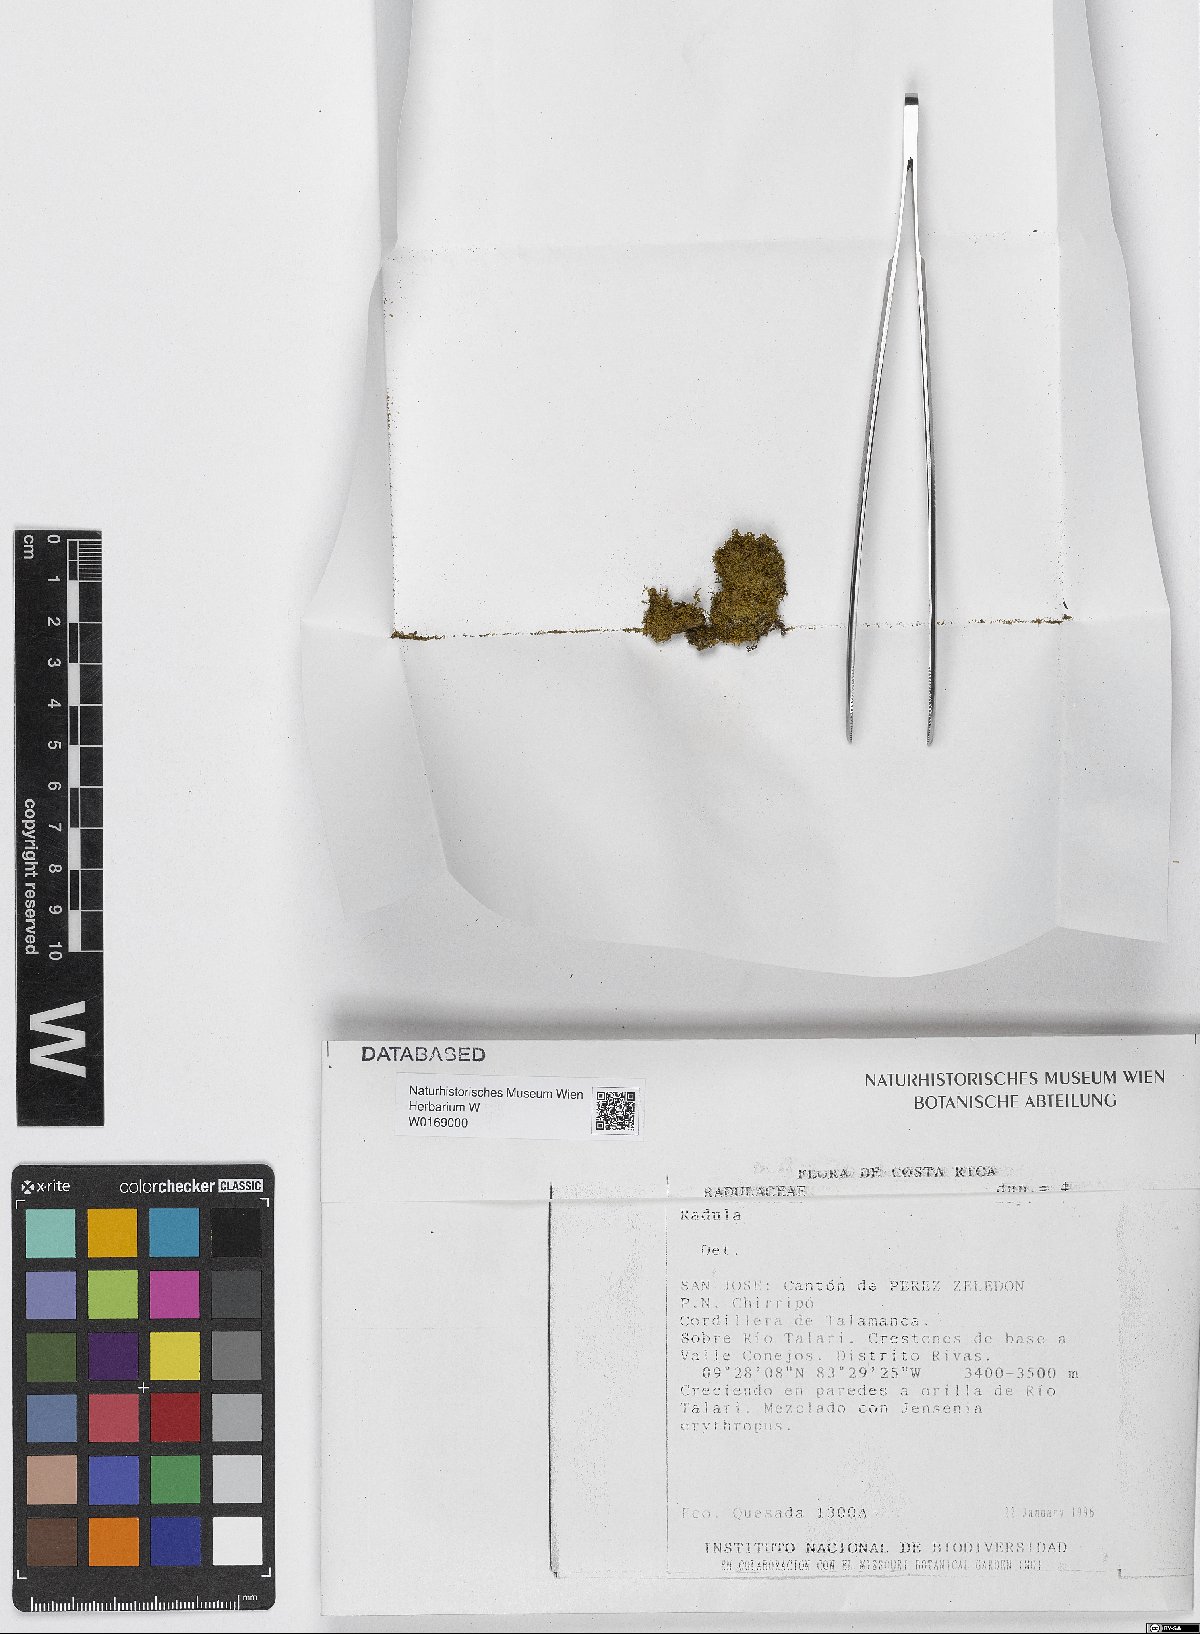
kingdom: Plantae
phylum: Marchantiophyta
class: Jungermanniopsida
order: Porellales
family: Radulaceae
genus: Radula
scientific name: Radula
